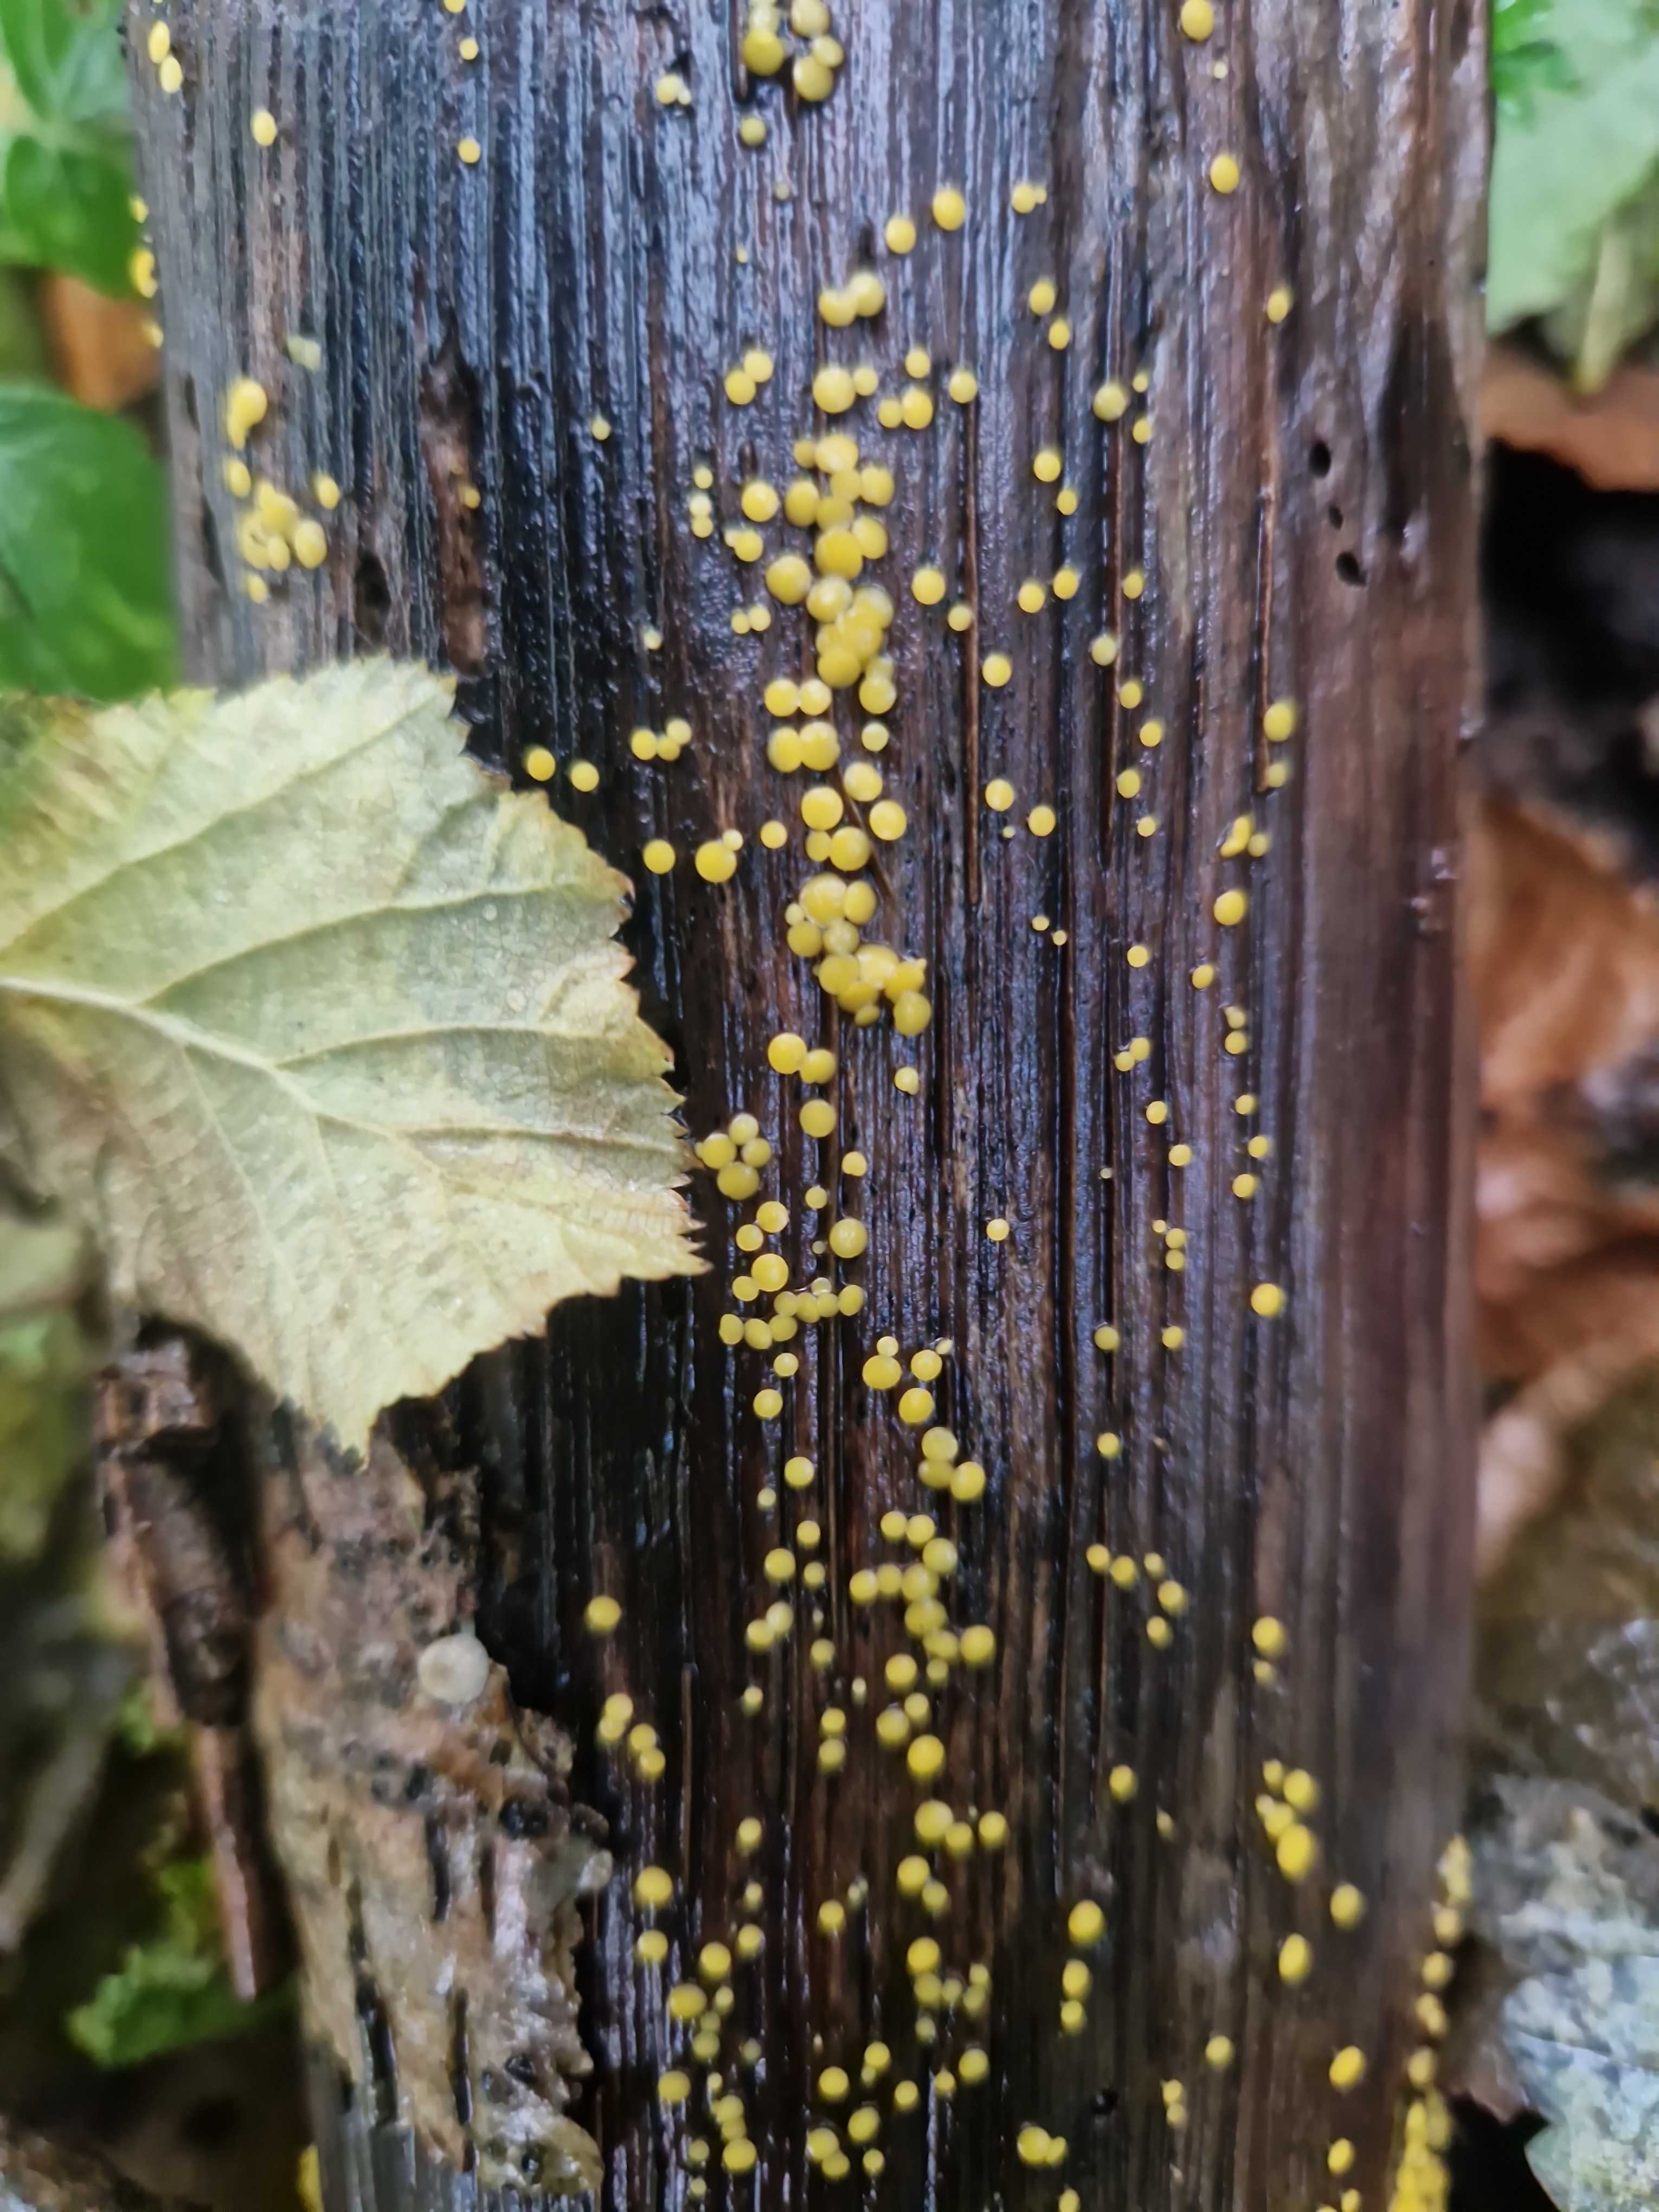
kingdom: Fungi
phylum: Ascomycota
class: Leotiomycetes
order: Helotiales
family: Pezizellaceae
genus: Calycina
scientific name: Calycina citrina
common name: almindelig gulskive
